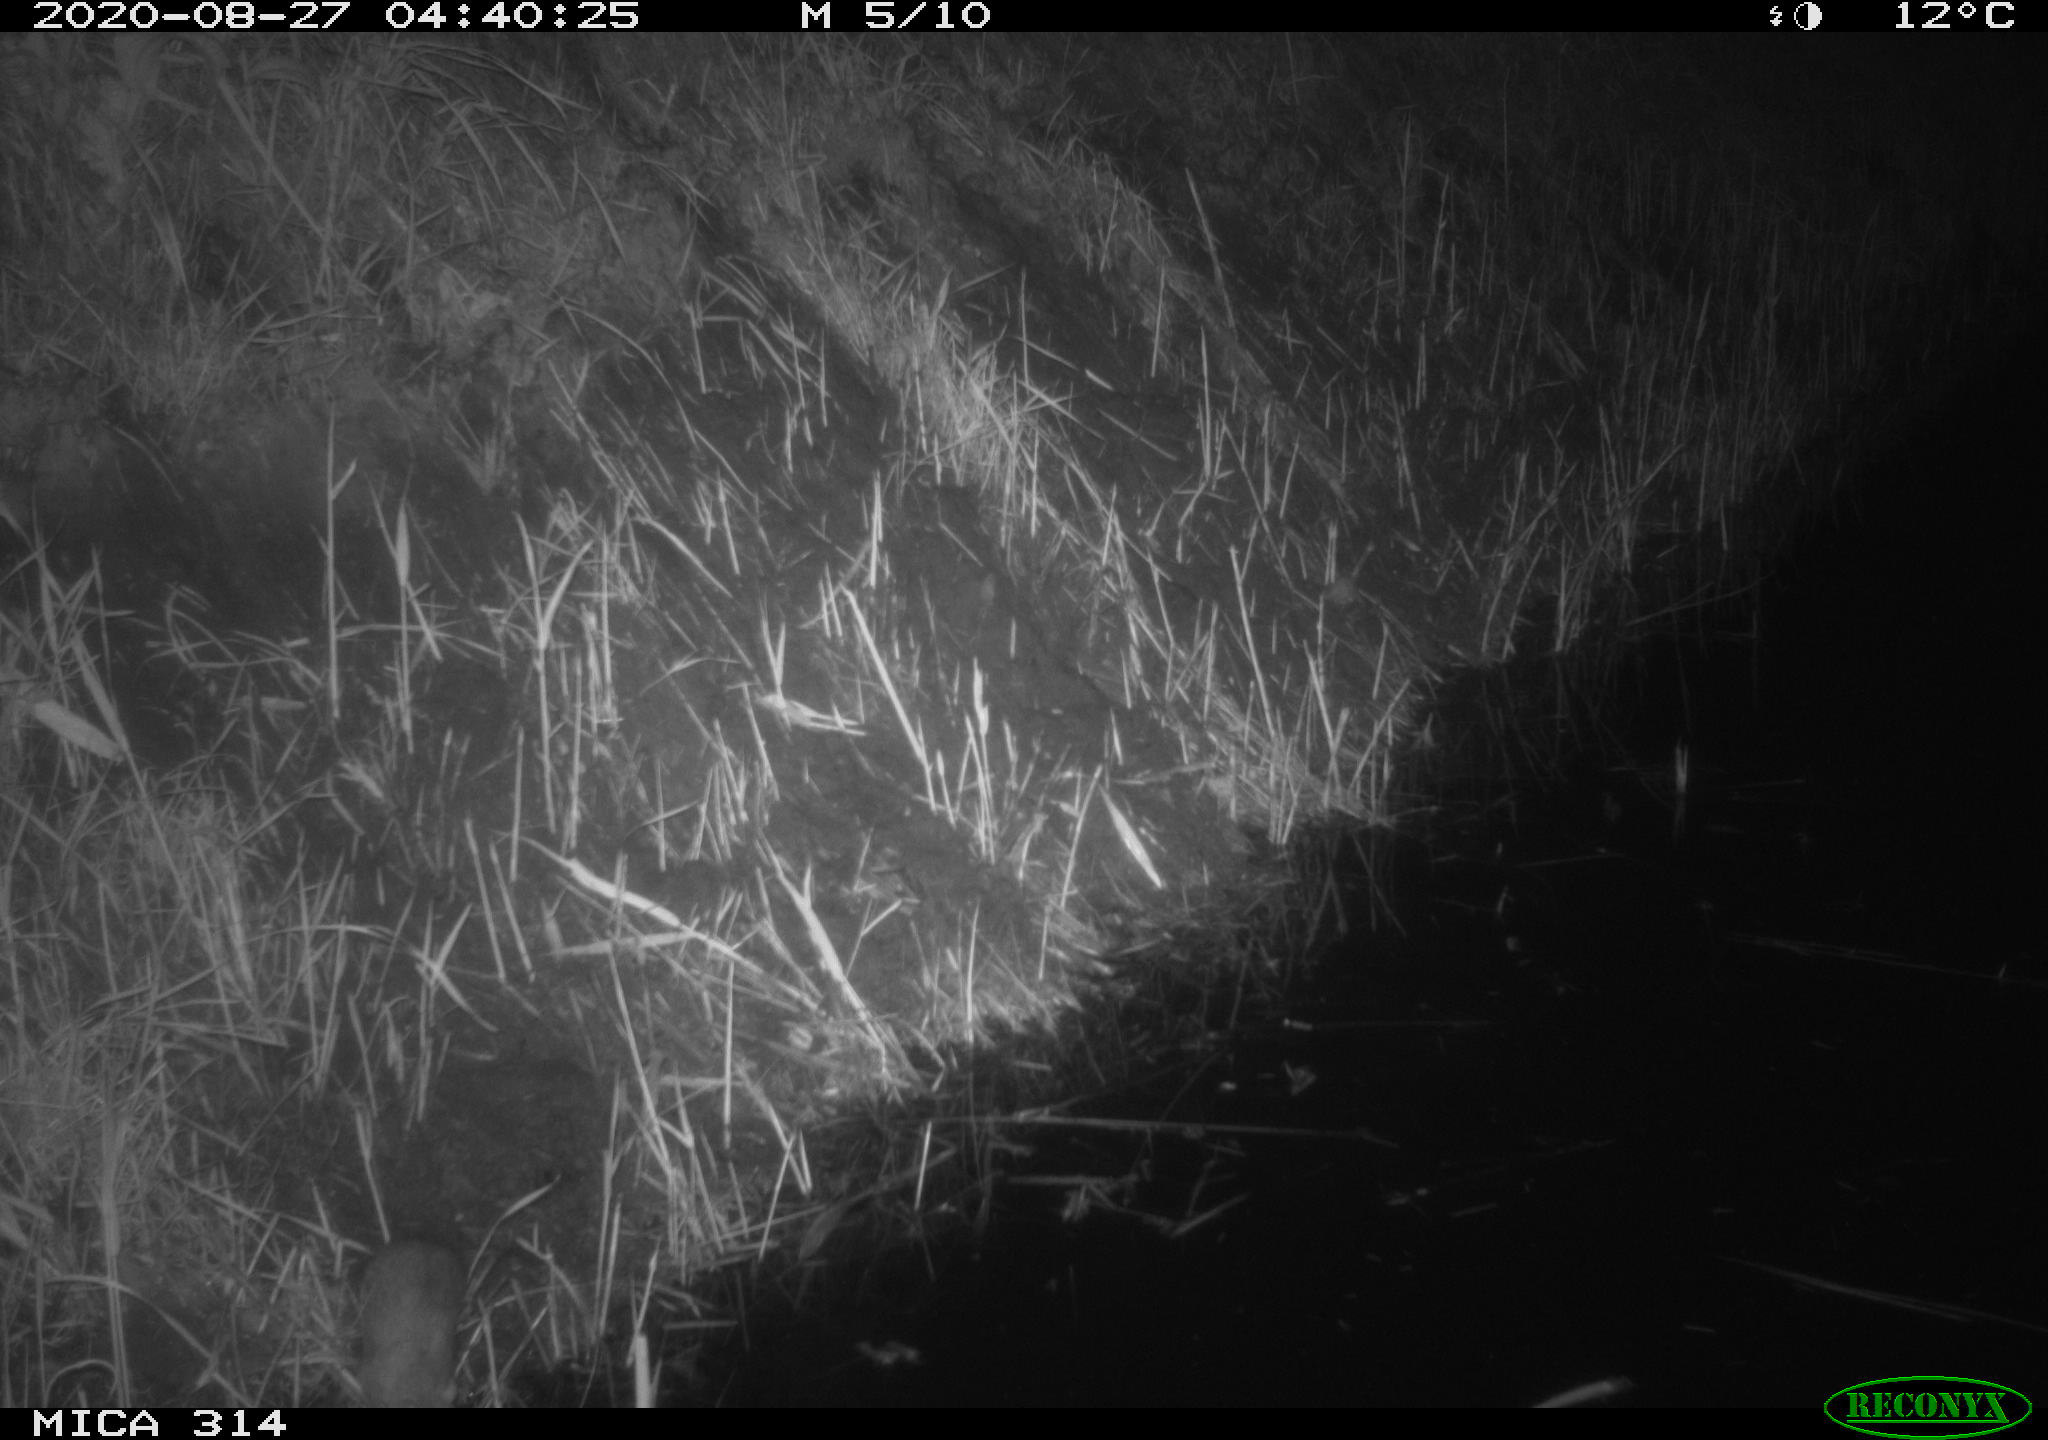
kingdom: Animalia
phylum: Chordata
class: Mammalia
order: Rodentia
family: Muridae
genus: Rattus
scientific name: Rattus norvegicus
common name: Brown rat
